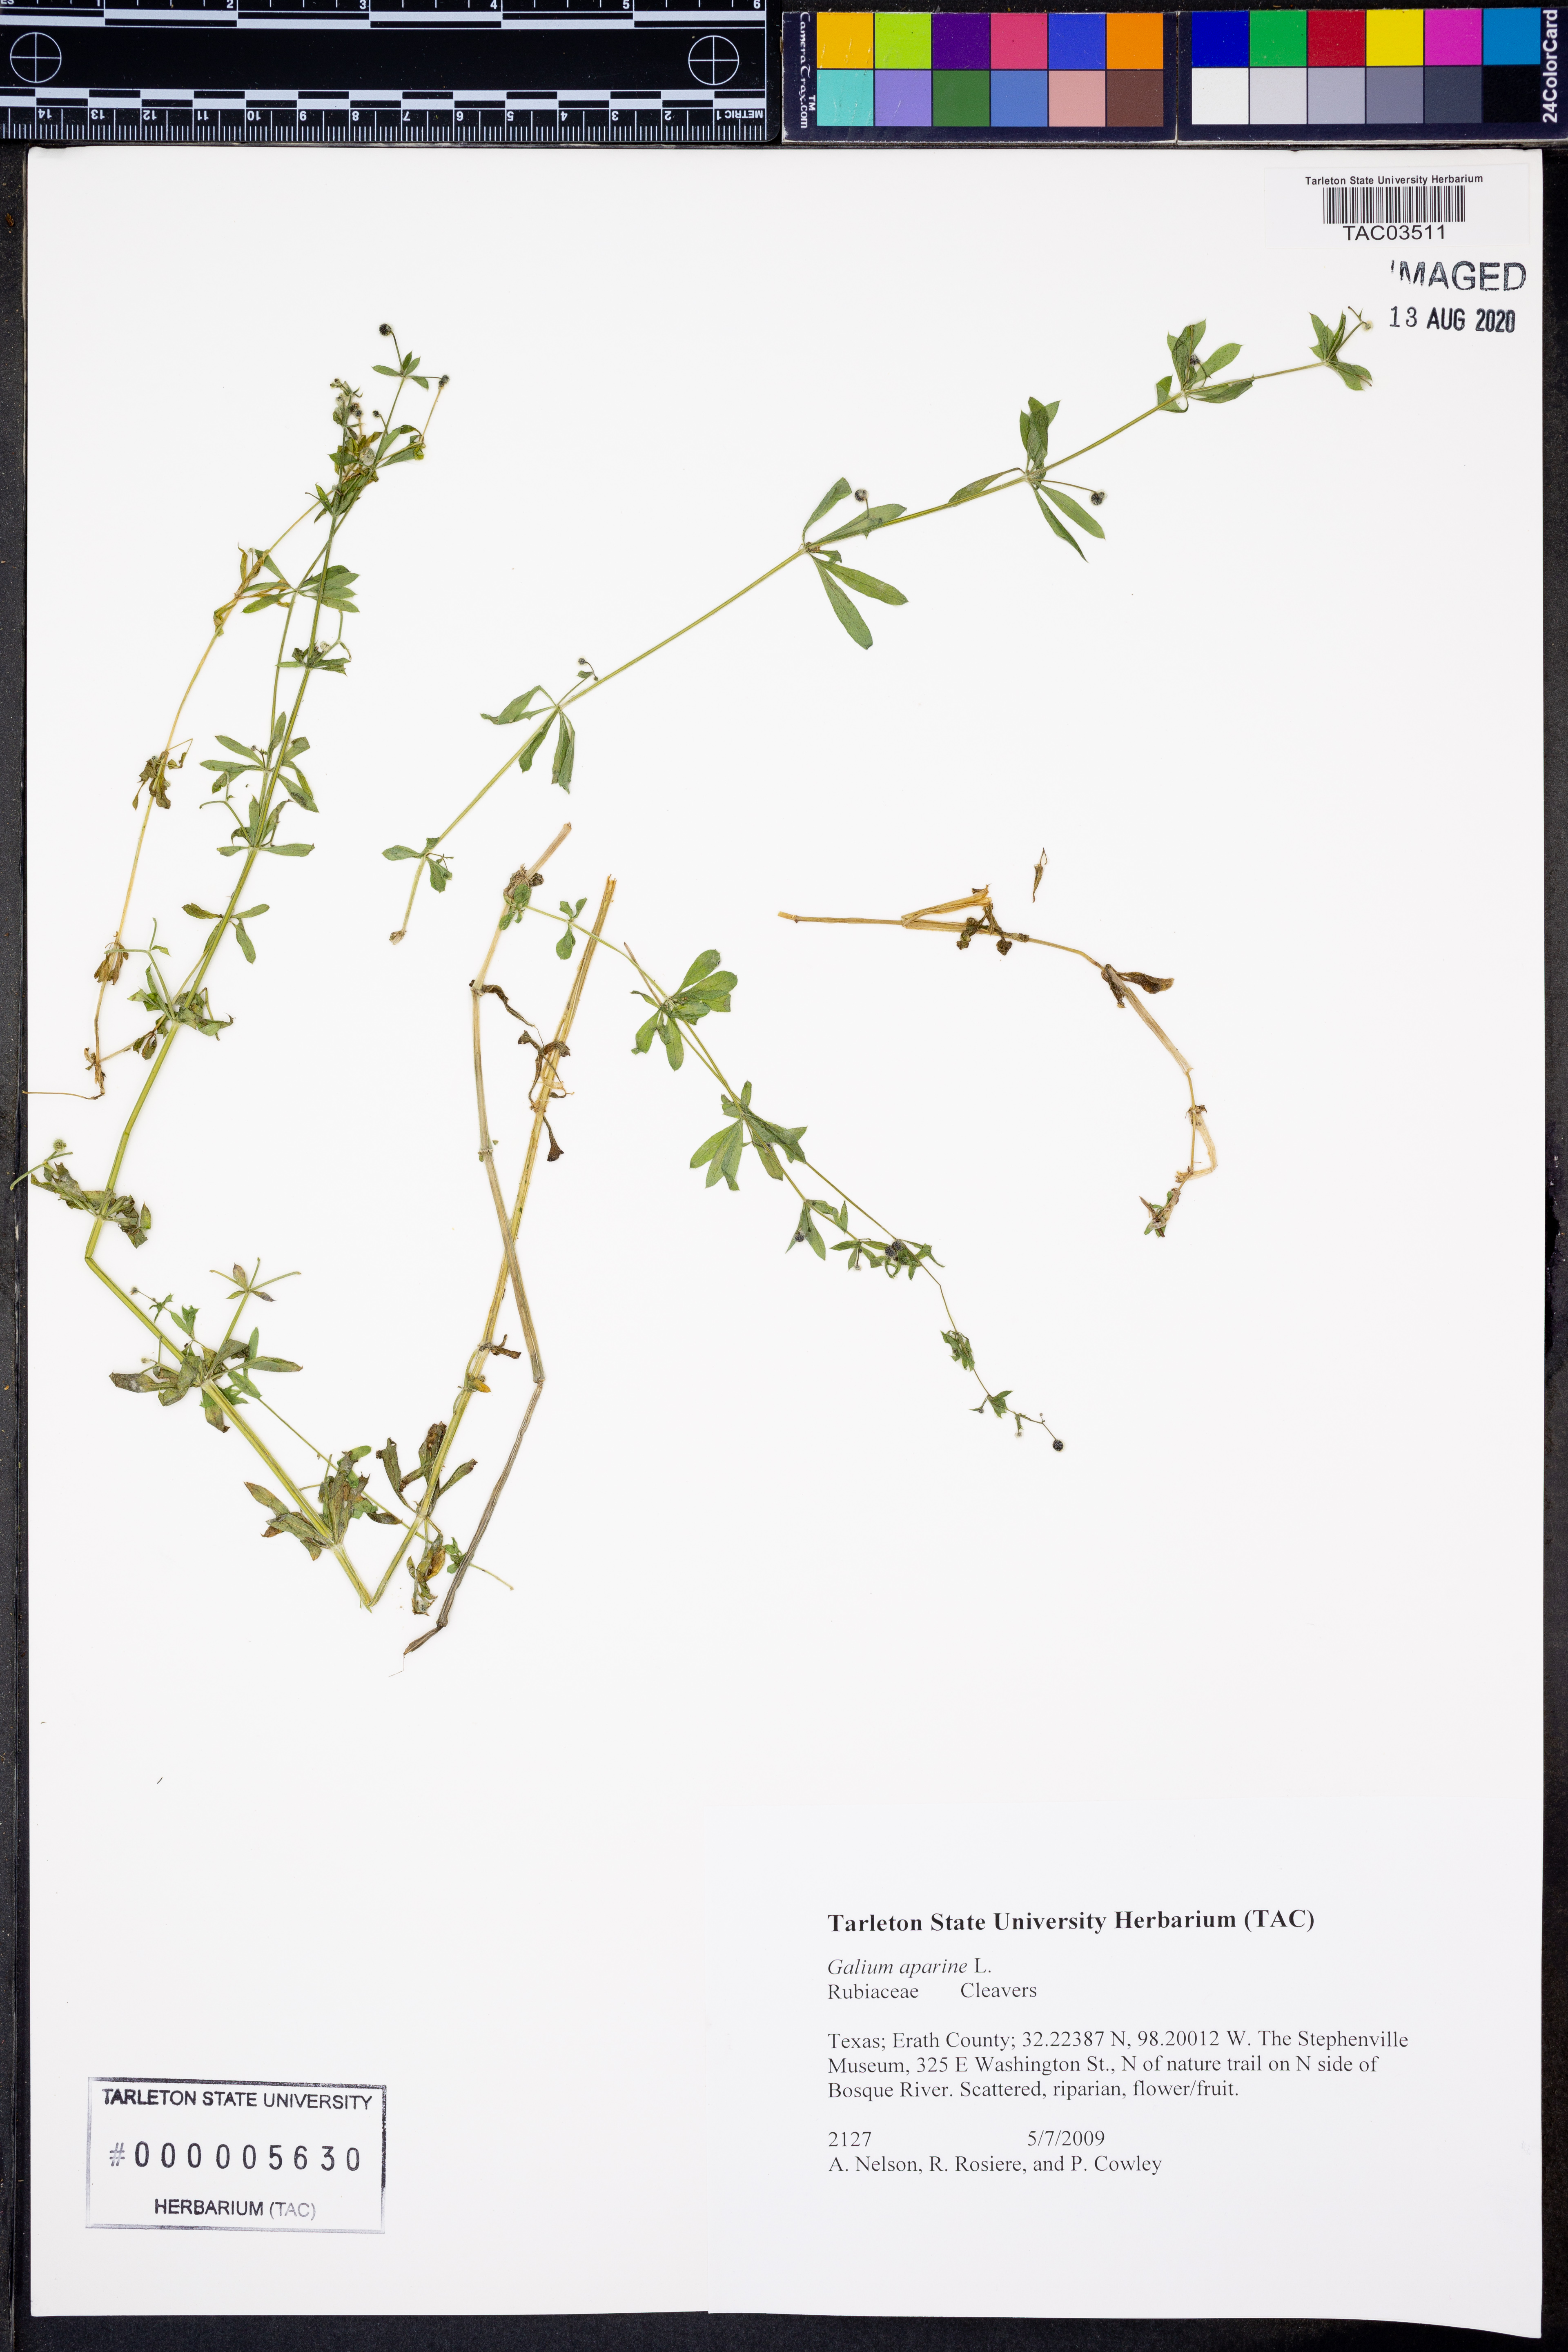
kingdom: Plantae
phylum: Tracheophyta
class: Magnoliopsida
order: Gentianales
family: Rubiaceae
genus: Galium
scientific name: Galium aparine
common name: Cleavers
